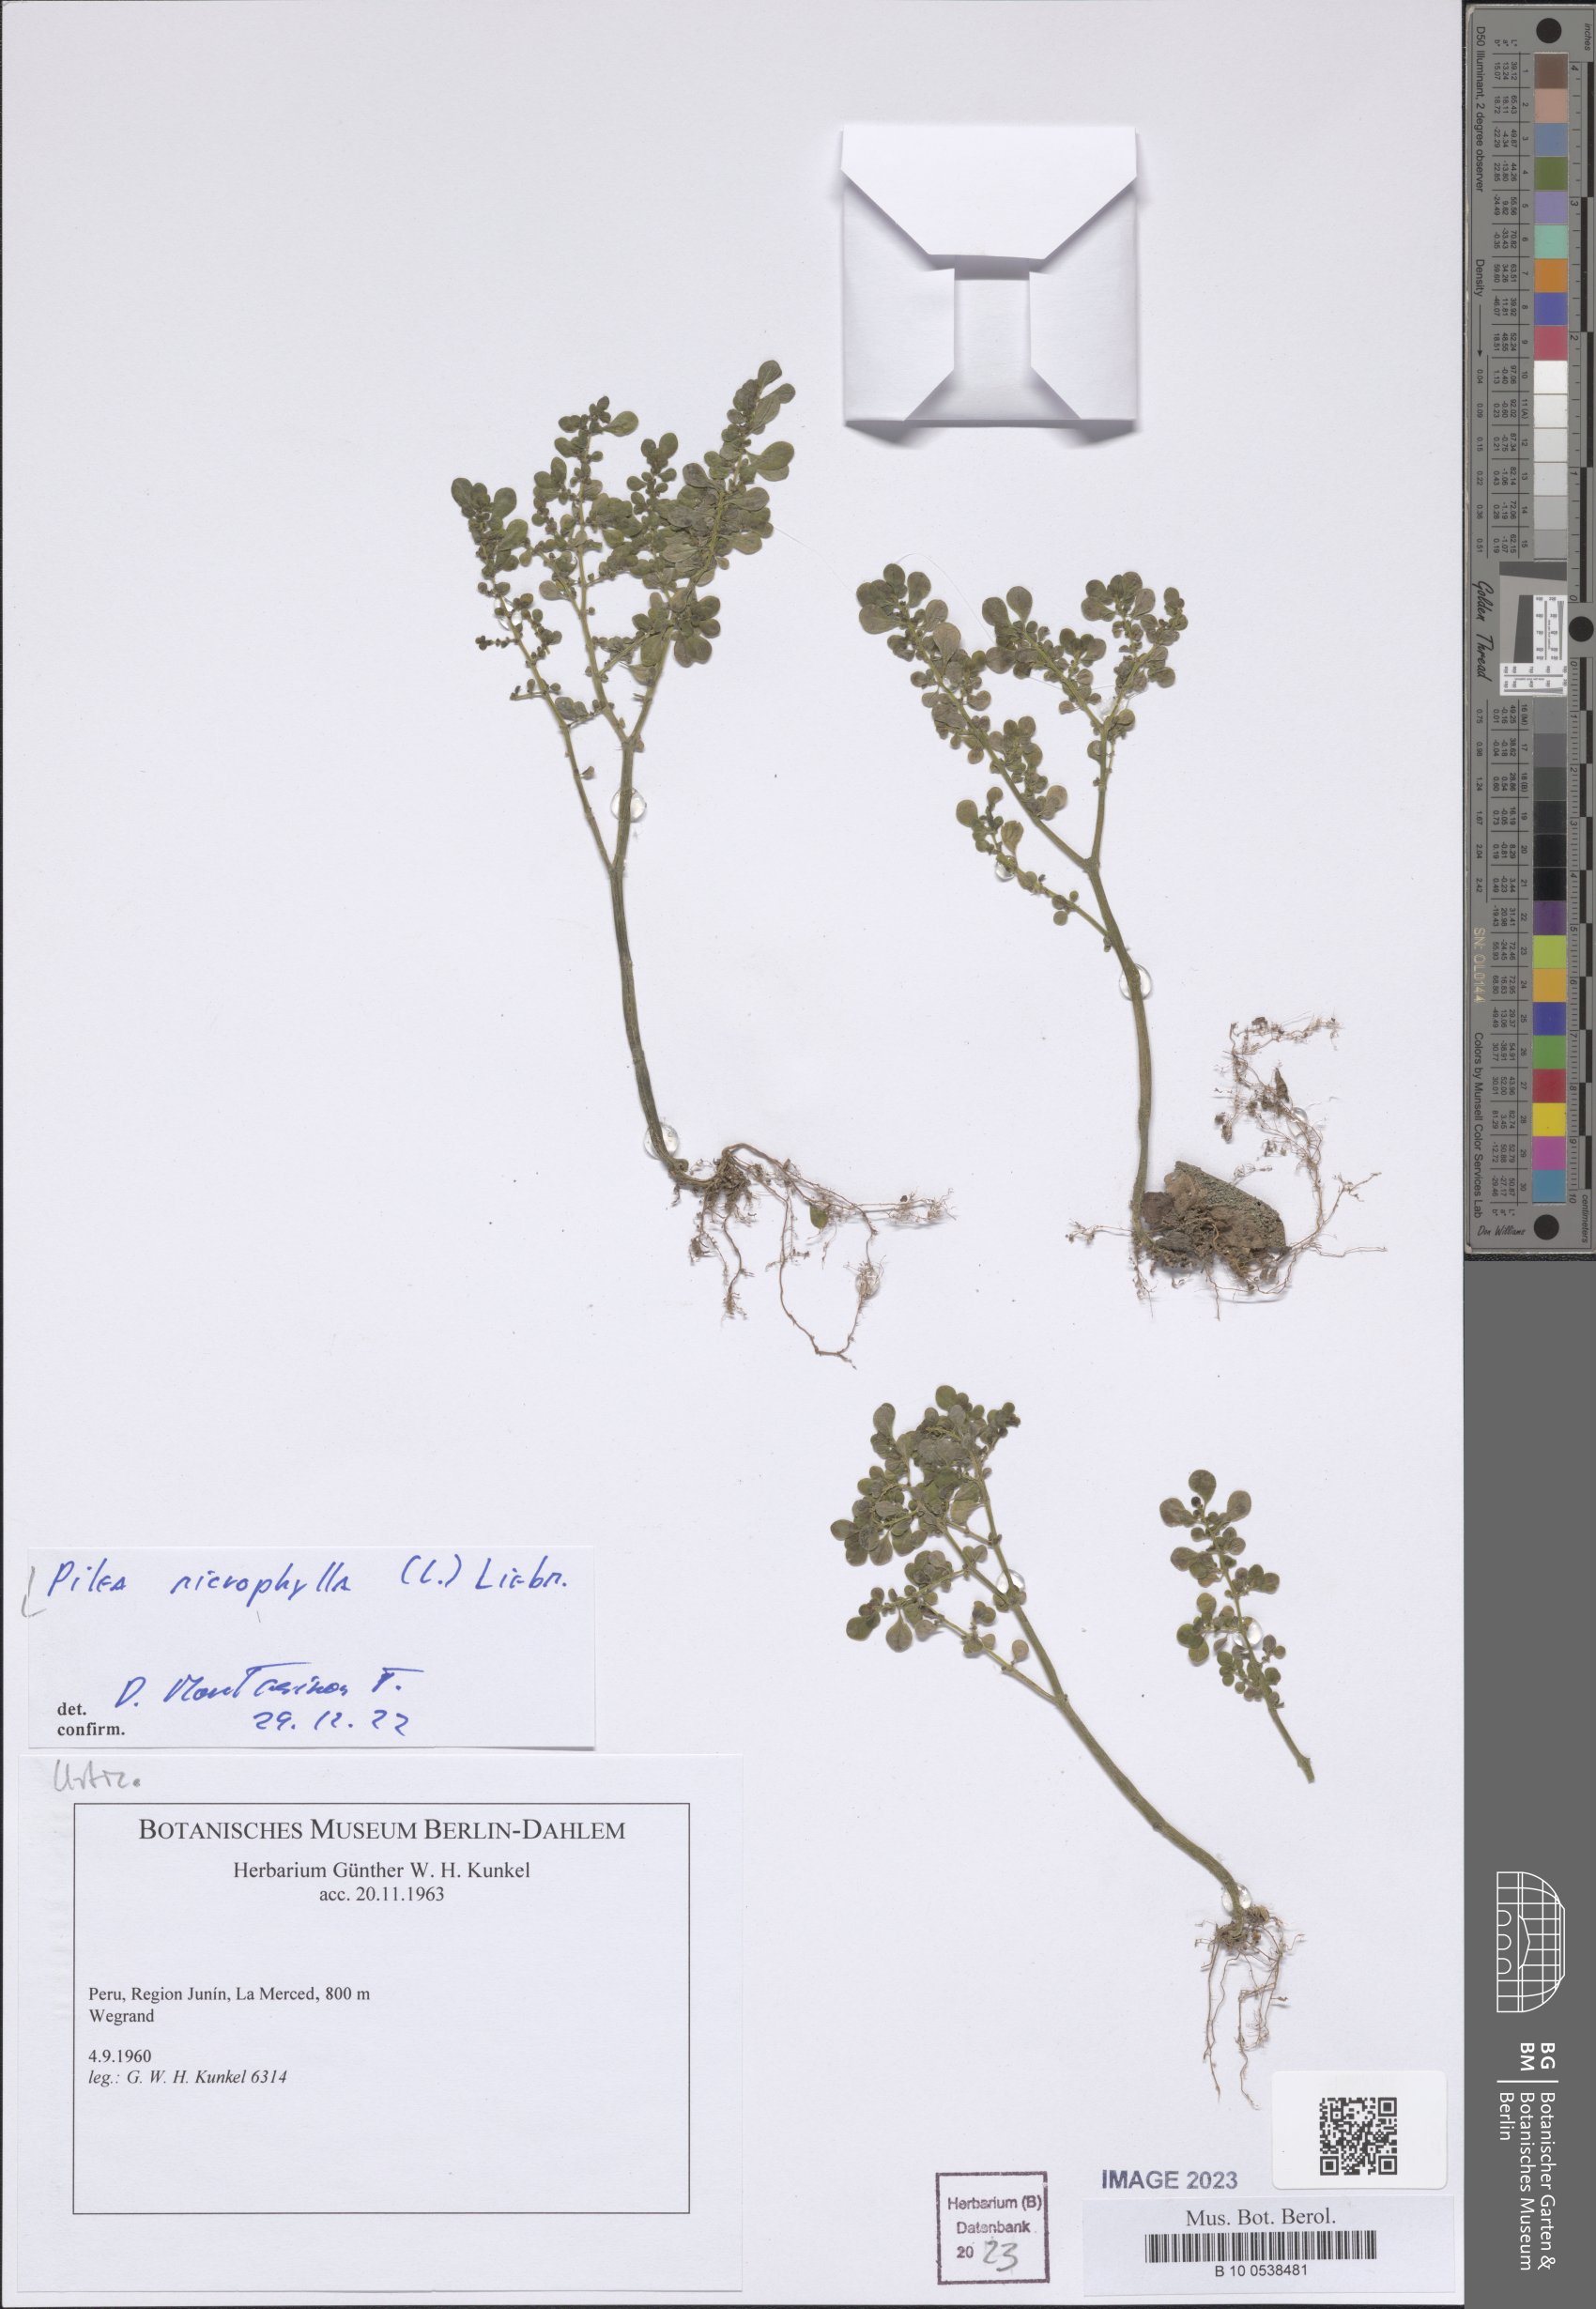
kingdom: Plantae
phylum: Tracheophyta
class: Magnoliopsida
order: Rosales
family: Urticaceae
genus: Pilea
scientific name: Pilea microphylla
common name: Artillery-plant
